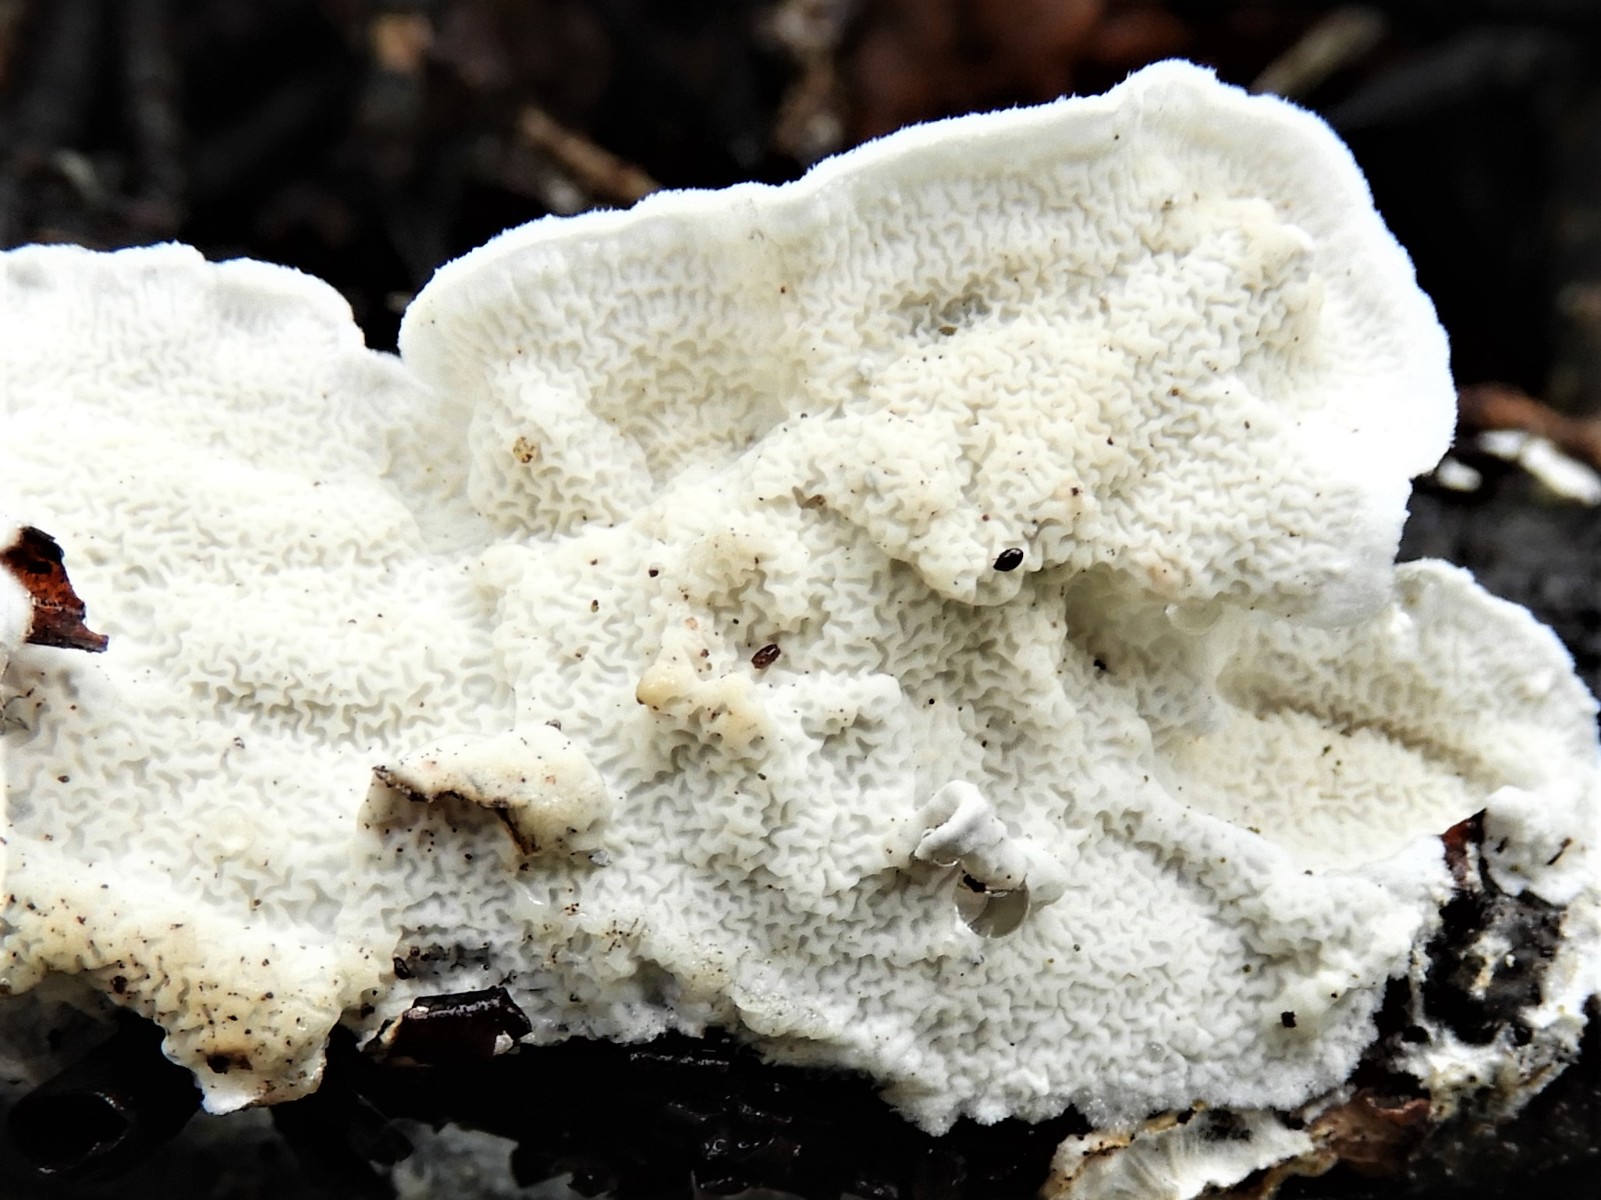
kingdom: Fungi
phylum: Basidiomycota
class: Agaricomycetes
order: Polyporales
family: Irpicaceae
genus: Byssomerulius
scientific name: Byssomerulius corium
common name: læder-åresvamp
